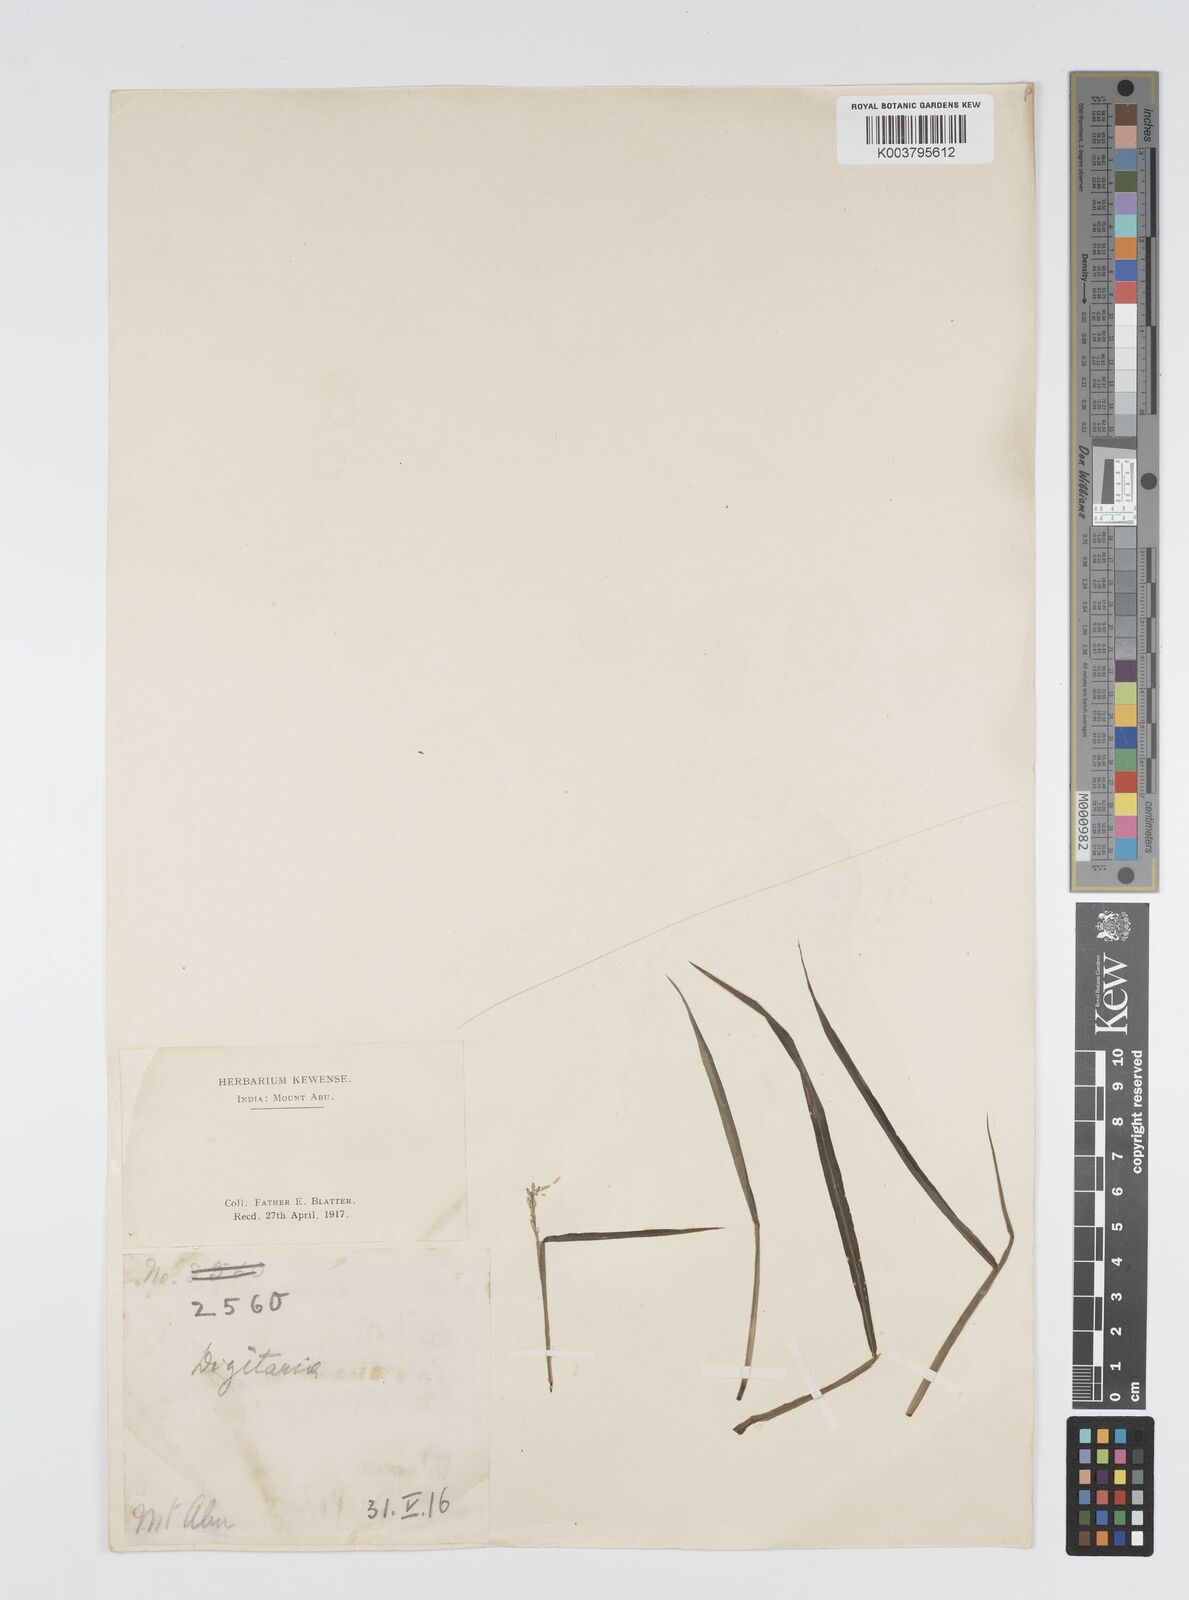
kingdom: Plantae
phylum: Tracheophyta
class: Liliopsida
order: Poales
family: Poaceae
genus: Digitaria
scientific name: Digitaria sanguinalis
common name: Hairy crabgrass
